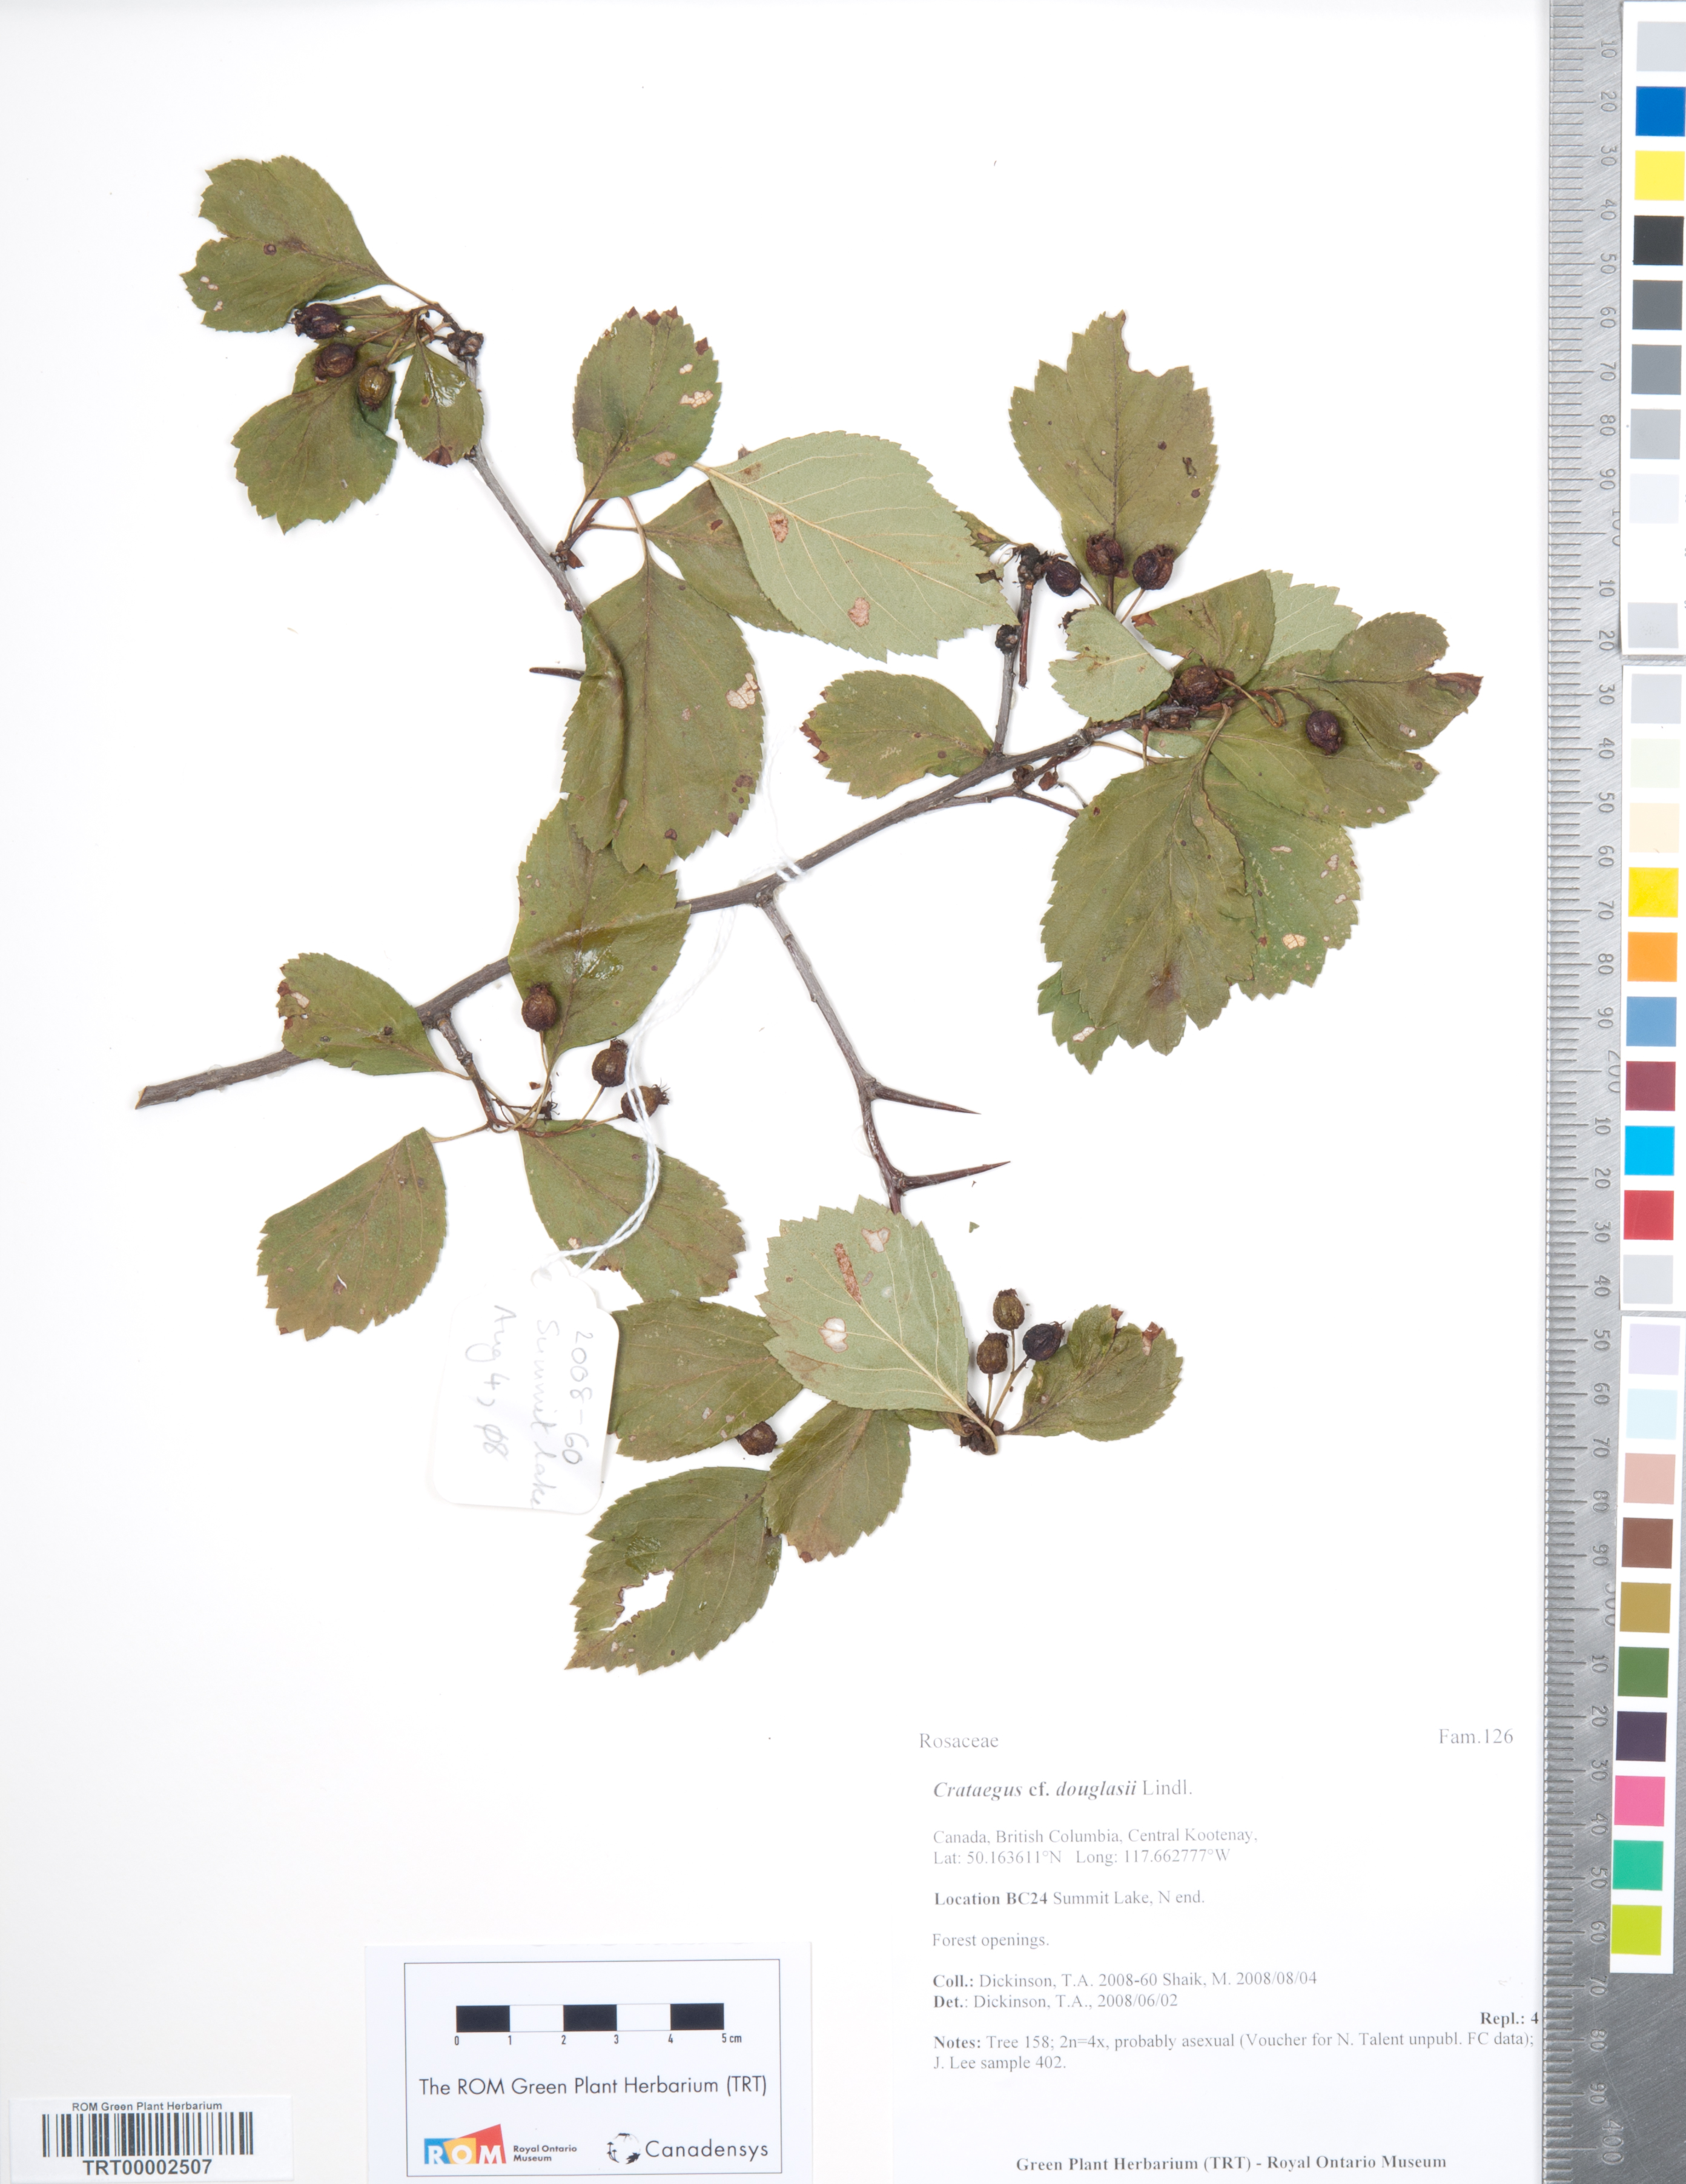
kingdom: Plantae
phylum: Tracheophyta
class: Magnoliopsida
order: Rosales
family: Rosaceae
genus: Crataegus
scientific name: Crataegus douglasii
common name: Black hawthorn
